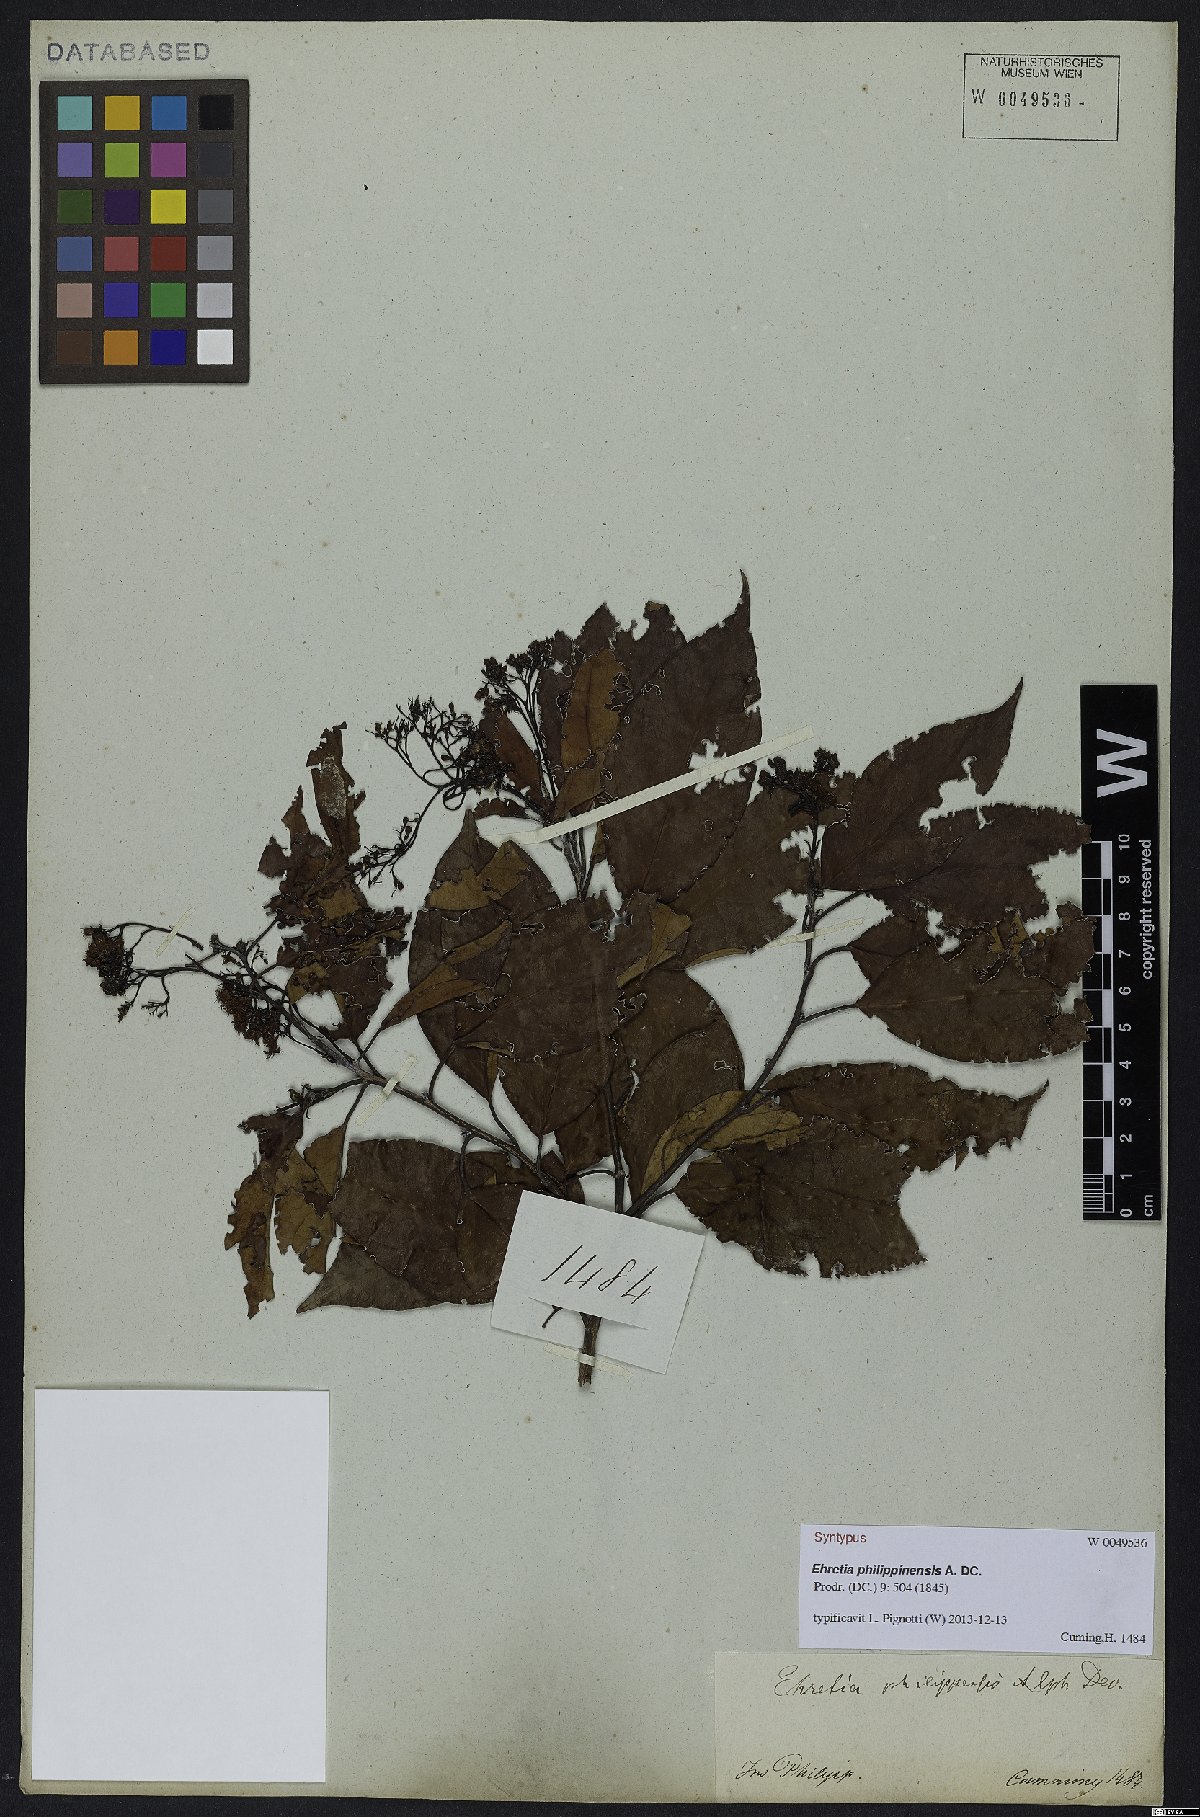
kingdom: Plantae
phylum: Tracheophyta
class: Magnoliopsida
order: Boraginales
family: Ehretiaceae
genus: Ehretia
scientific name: Ehretia philippinensis
